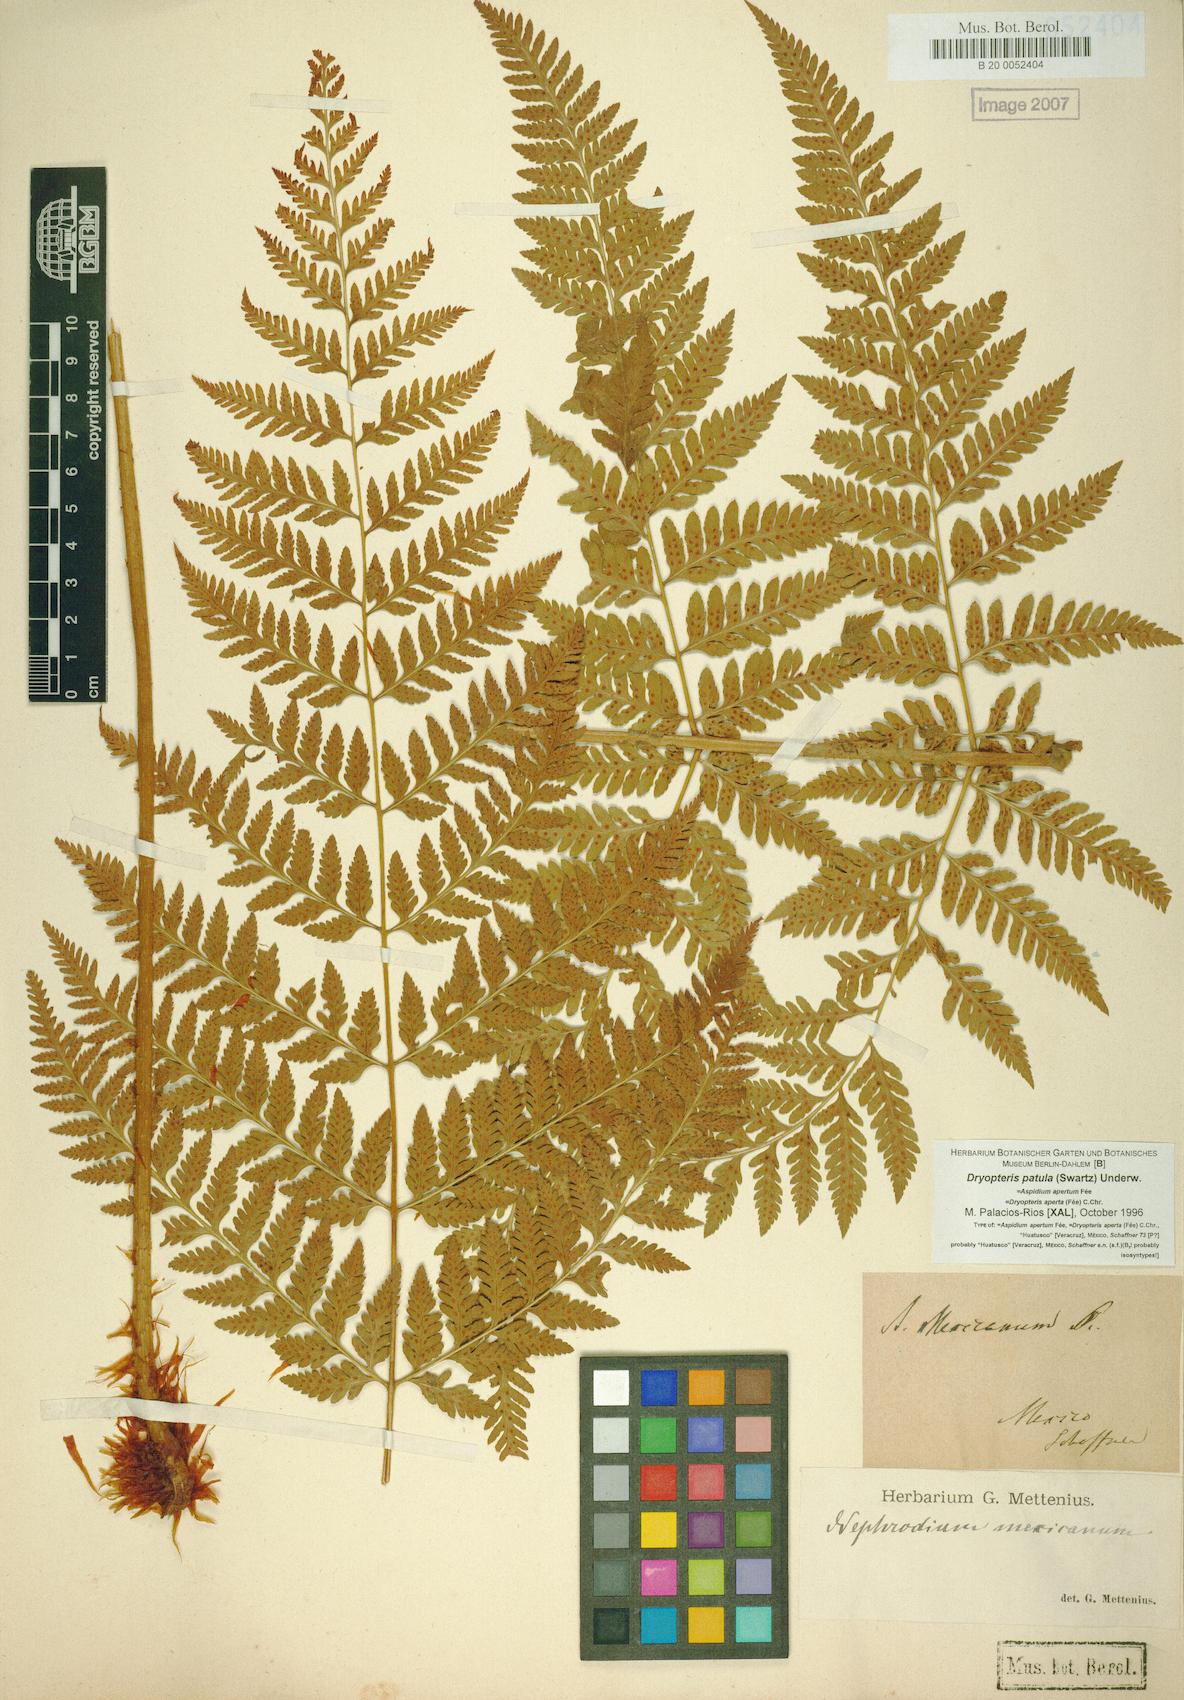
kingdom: Plantae
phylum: Tracheophyta
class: Polypodiopsida
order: Polypodiales
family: Dryopteridaceae
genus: Dryopteris
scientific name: Dryopteris patula
